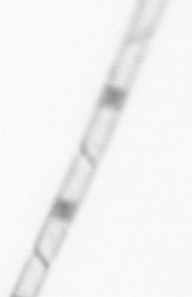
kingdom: Chromista
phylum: Ochrophyta
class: Bacillariophyceae
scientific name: Bacillariophyceae
